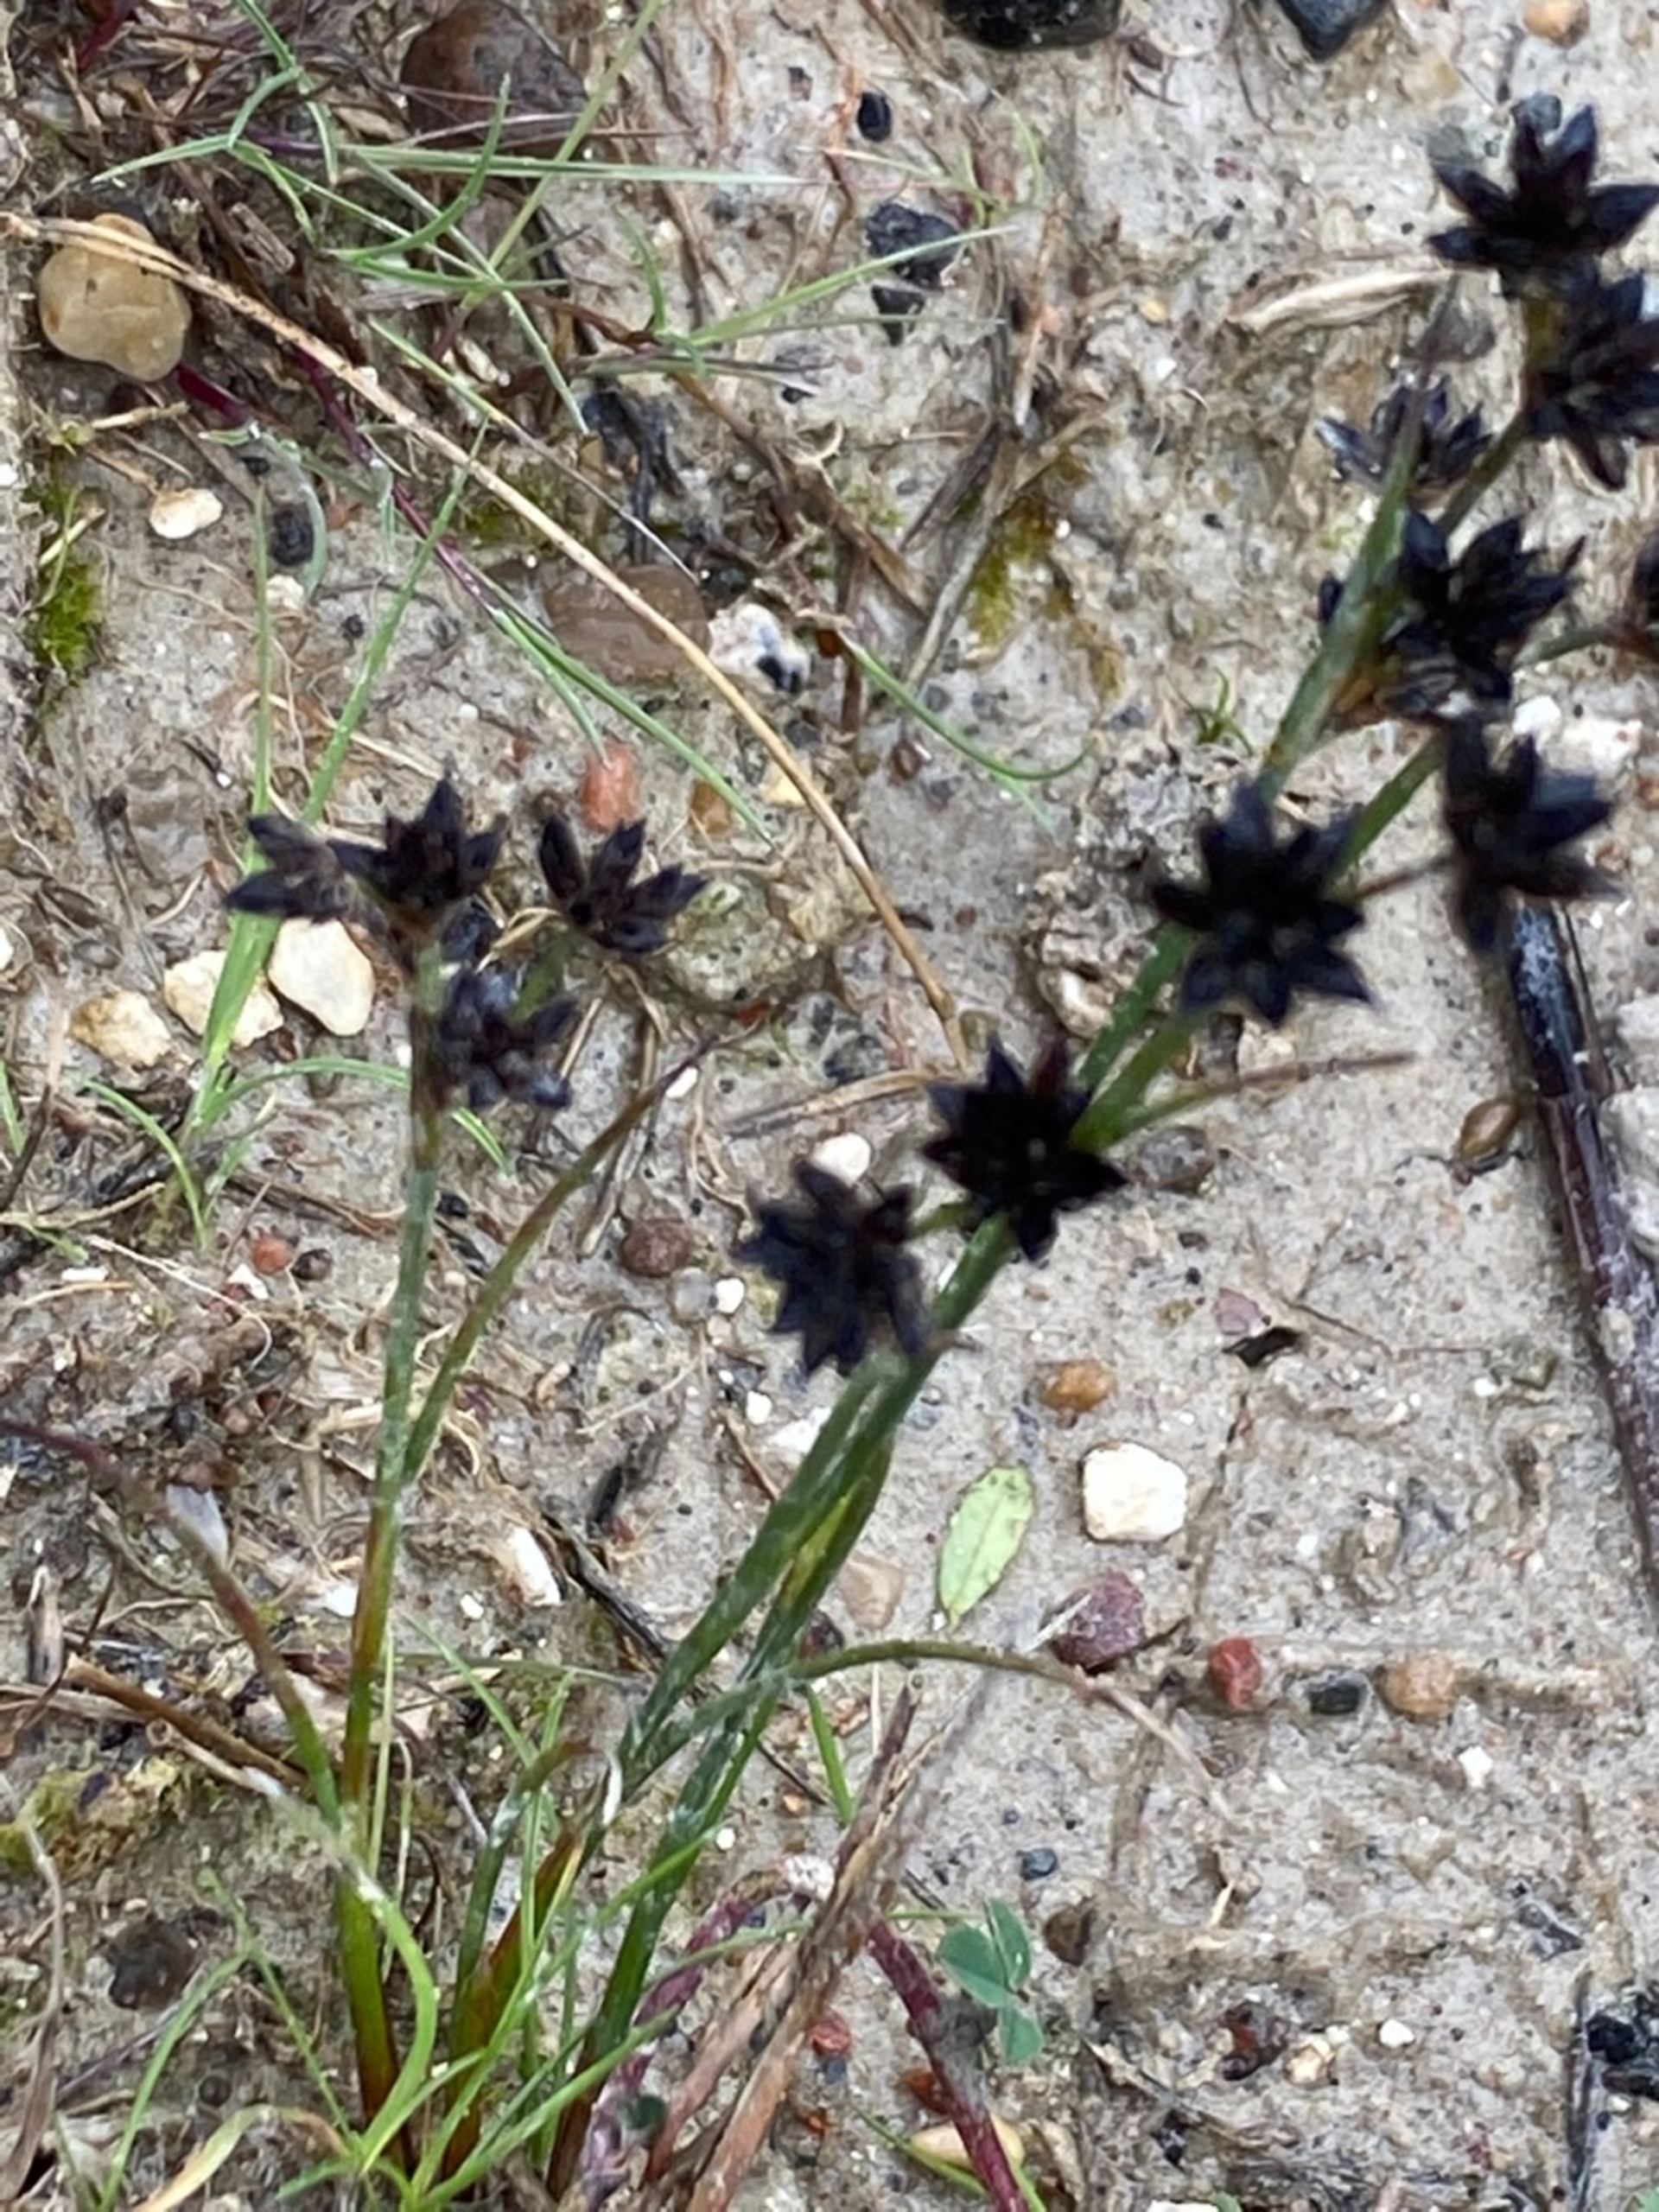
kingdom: Plantae
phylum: Tracheophyta
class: Liliopsida
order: Poales
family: Juncaceae
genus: Juncus
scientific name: Juncus articulatus
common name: Glanskapslet siv
